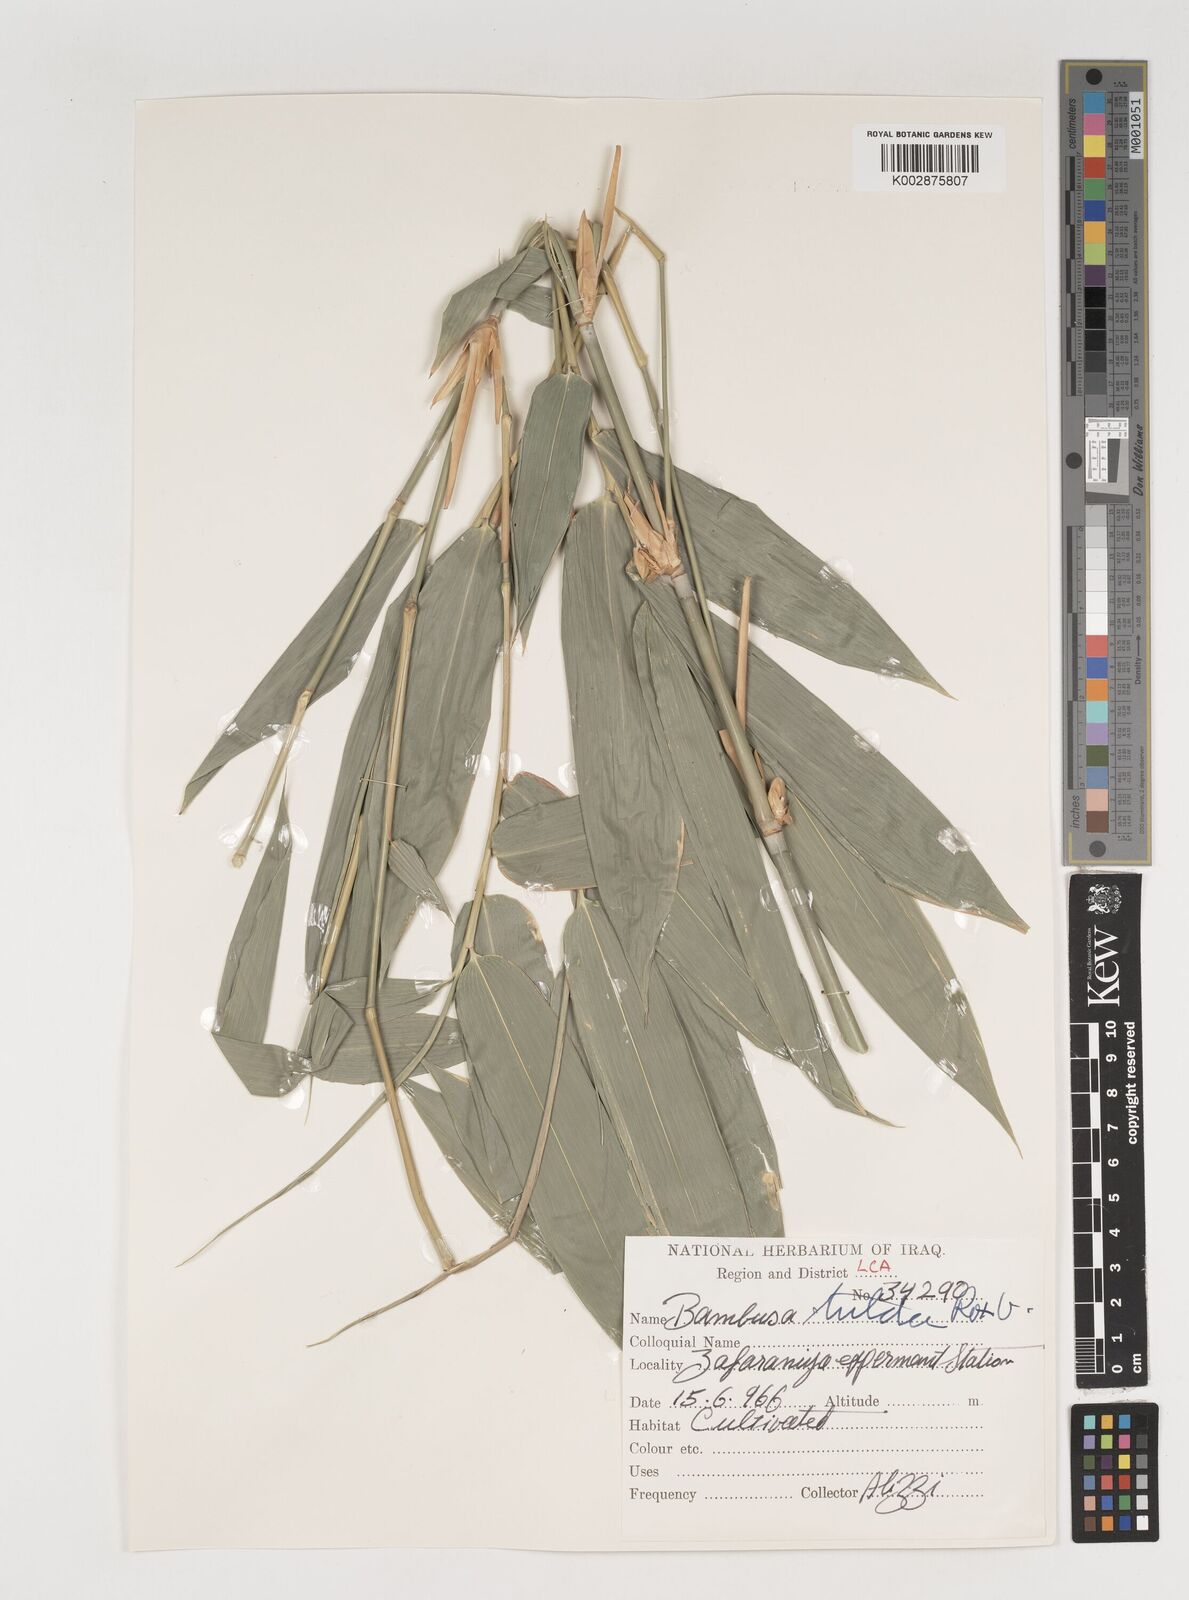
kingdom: Plantae
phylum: Tracheophyta
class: Liliopsida
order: Poales
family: Poaceae
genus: Bambusa
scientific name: Bambusa tulda
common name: Bengal bamboo
